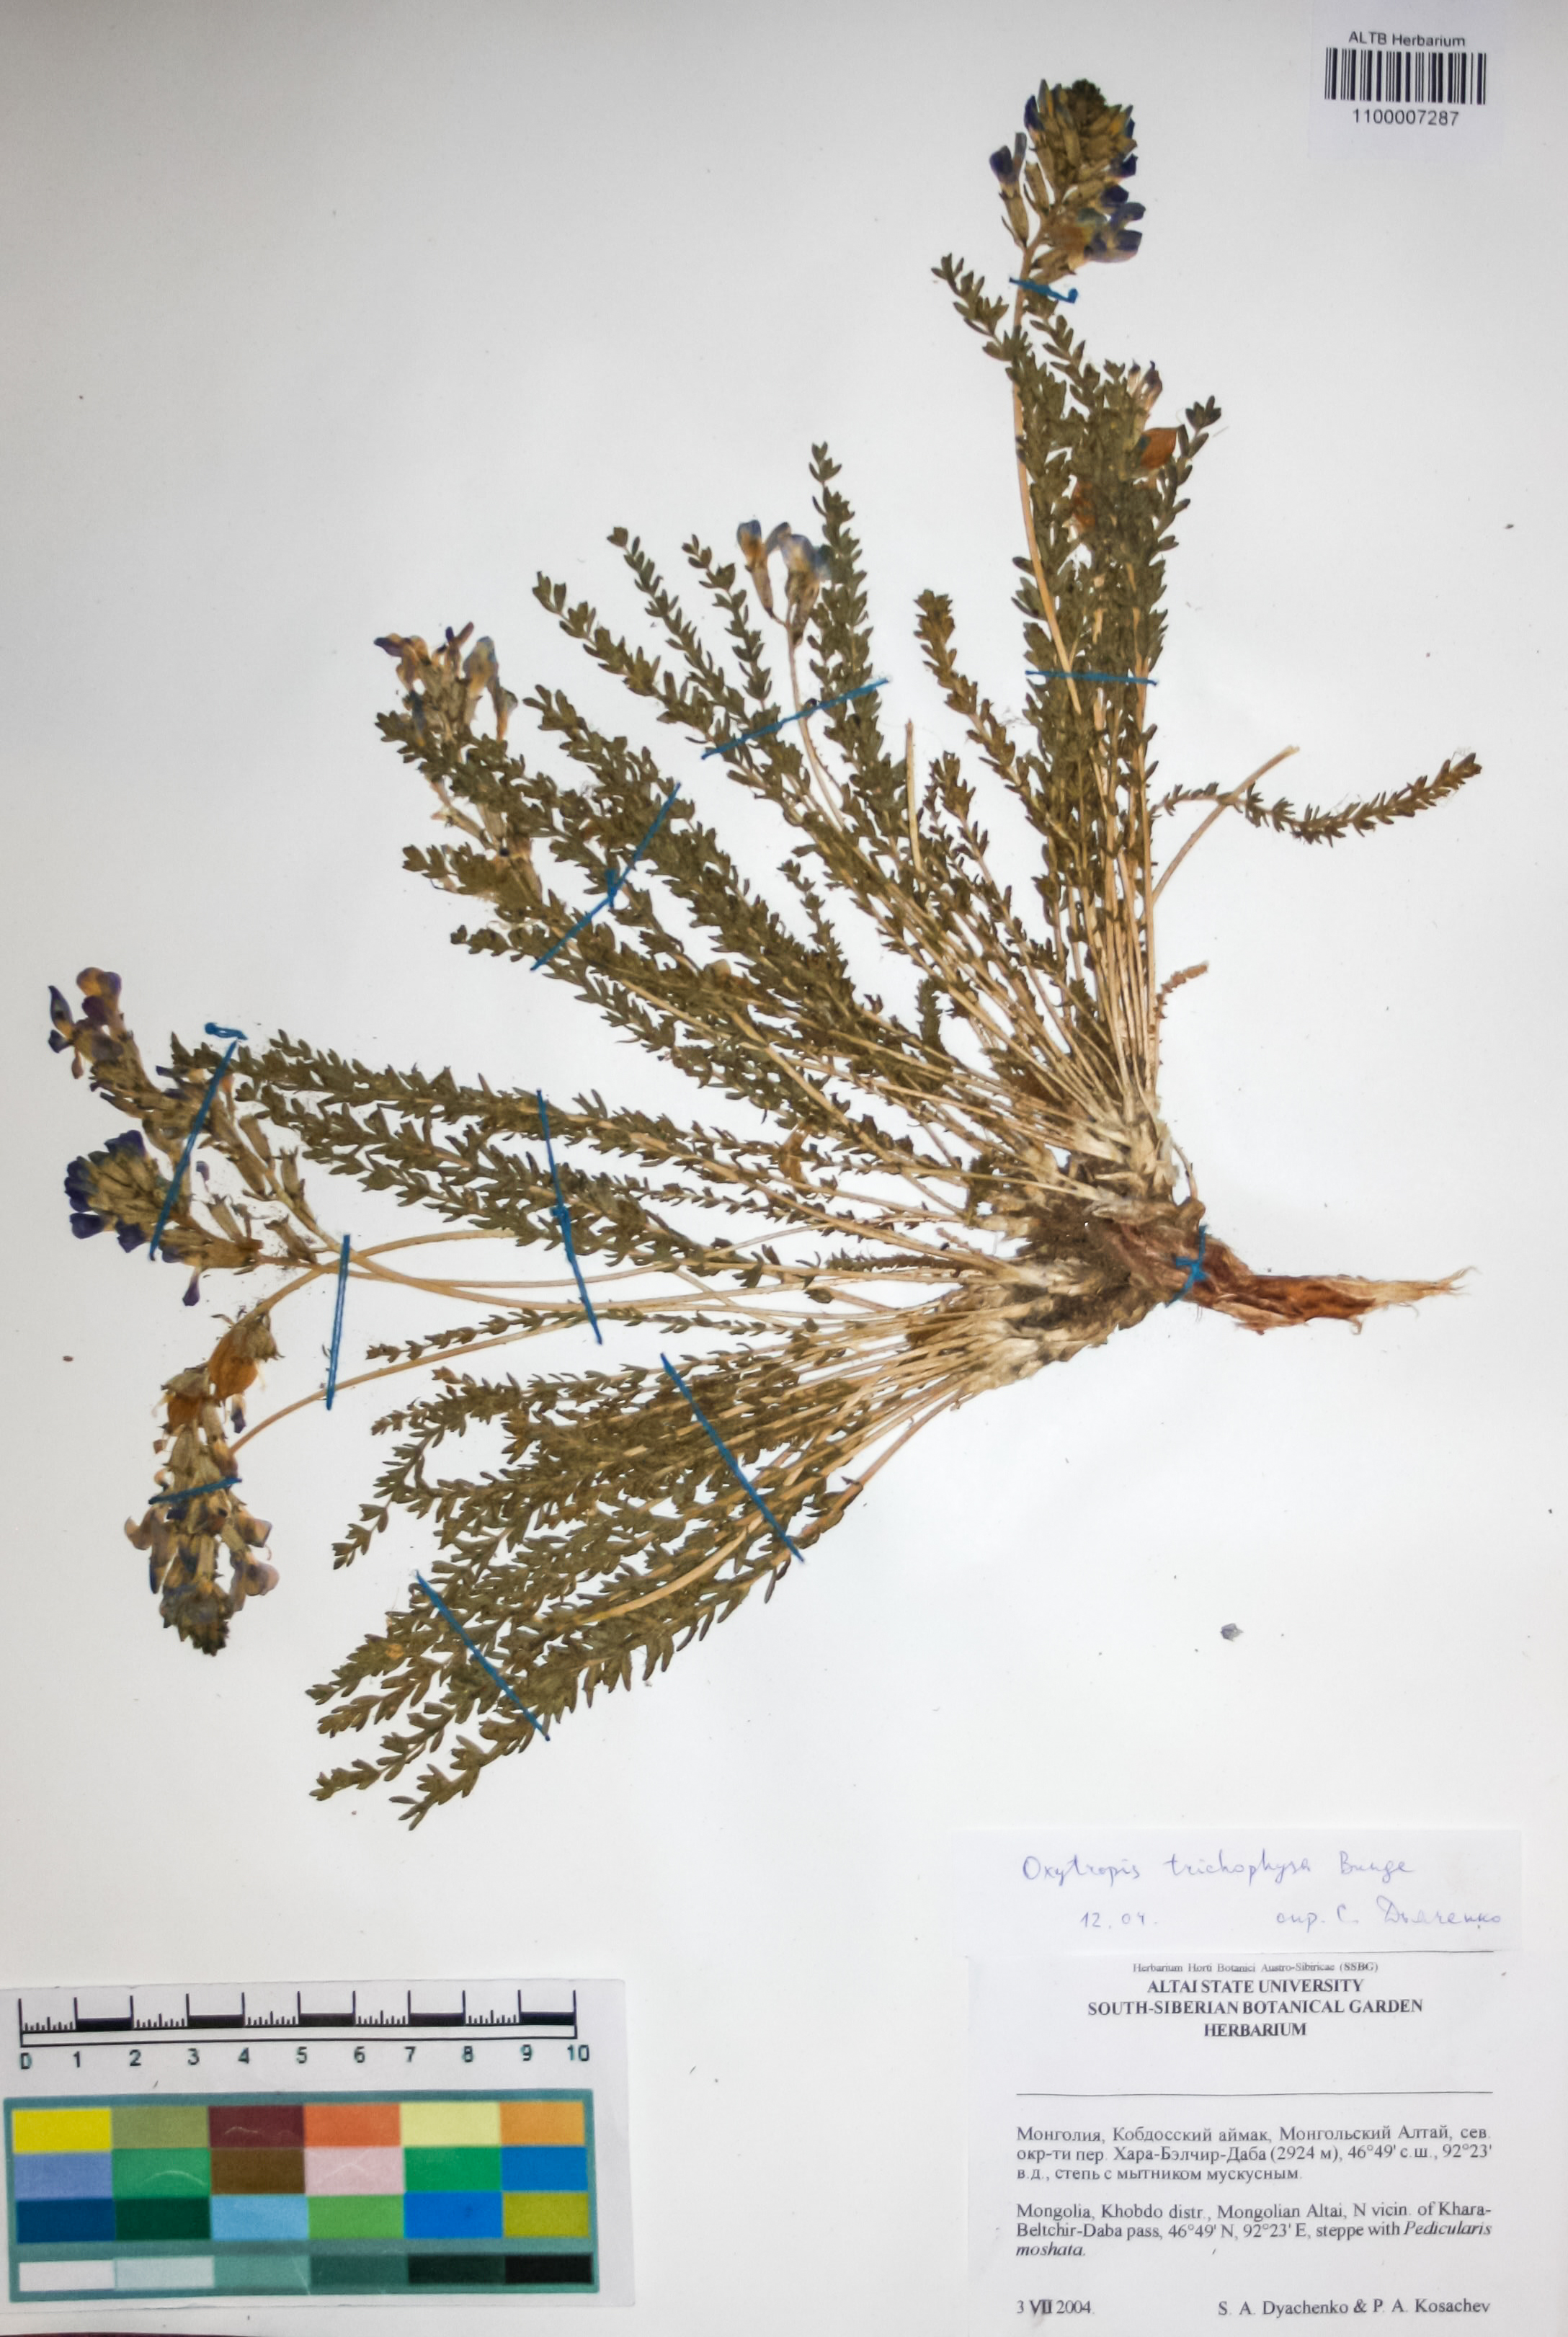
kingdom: Plantae
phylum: Tracheophyta
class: Magnoliopsida
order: Fabales
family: Fabaceae
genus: Oxytropis
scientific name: Oxytropis trichophysa
